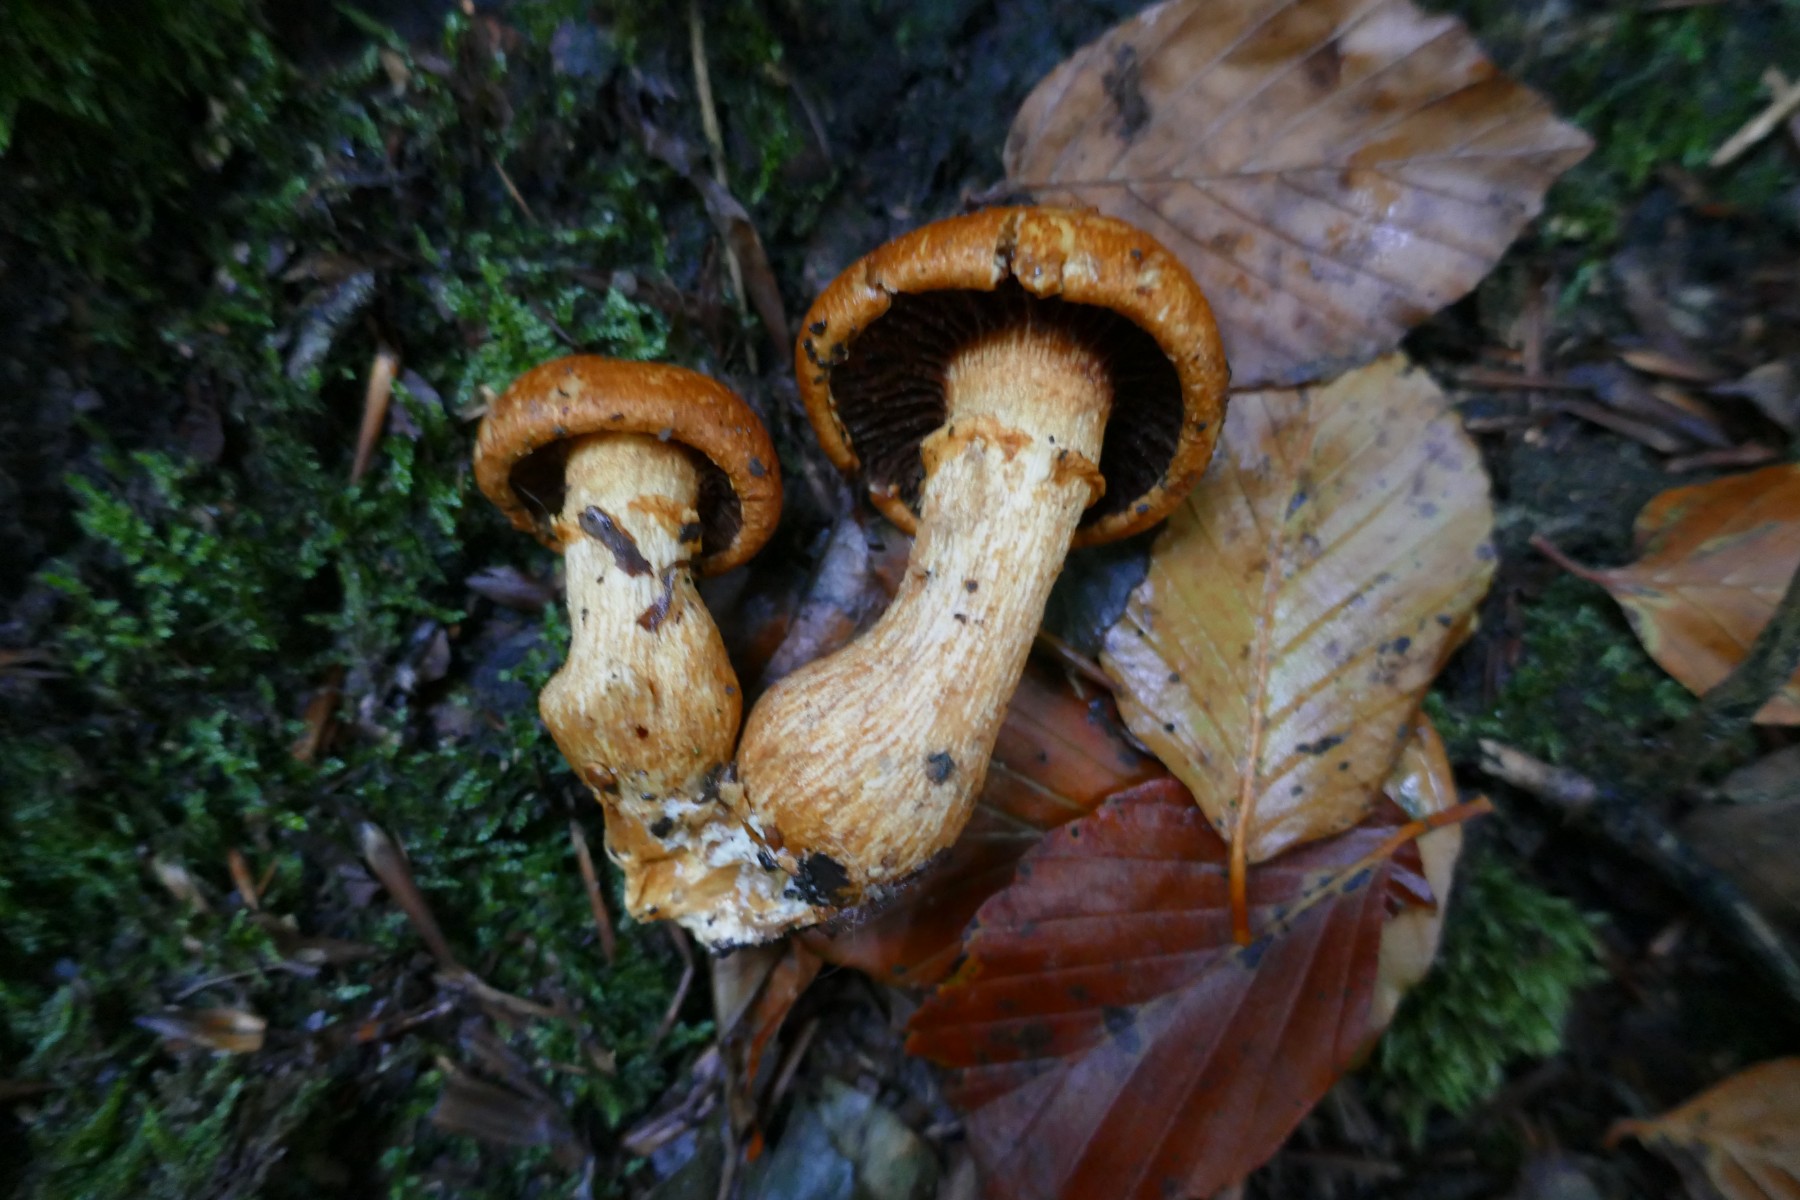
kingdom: Fungi
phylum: Basidiomycota
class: Agaricomycetes
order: Agaricales
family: Hymenogastraceae
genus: Gymnopilus
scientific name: Gymnopilus spectabilis
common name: fibret flammehat
